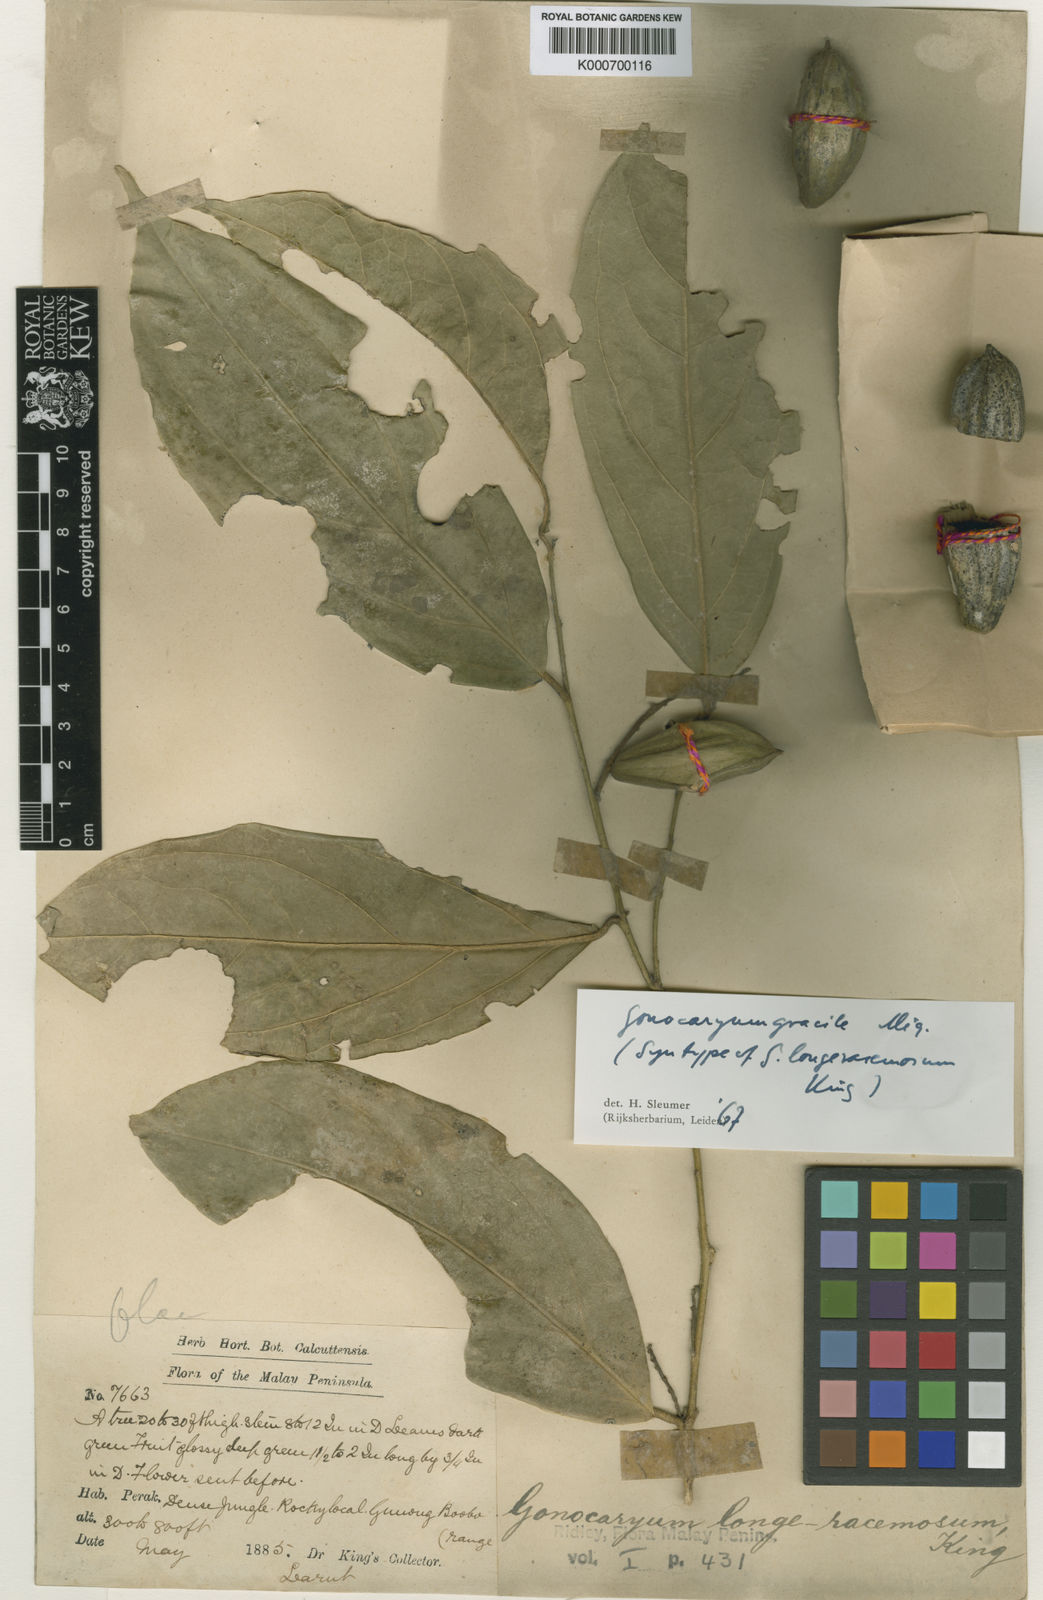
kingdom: Plantae
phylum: Tracheophyta
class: Magnoliopsida
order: Cardiopteridales
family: Cardiopteridaceae
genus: Gonocaryum
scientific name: Gonocaryum gracile
